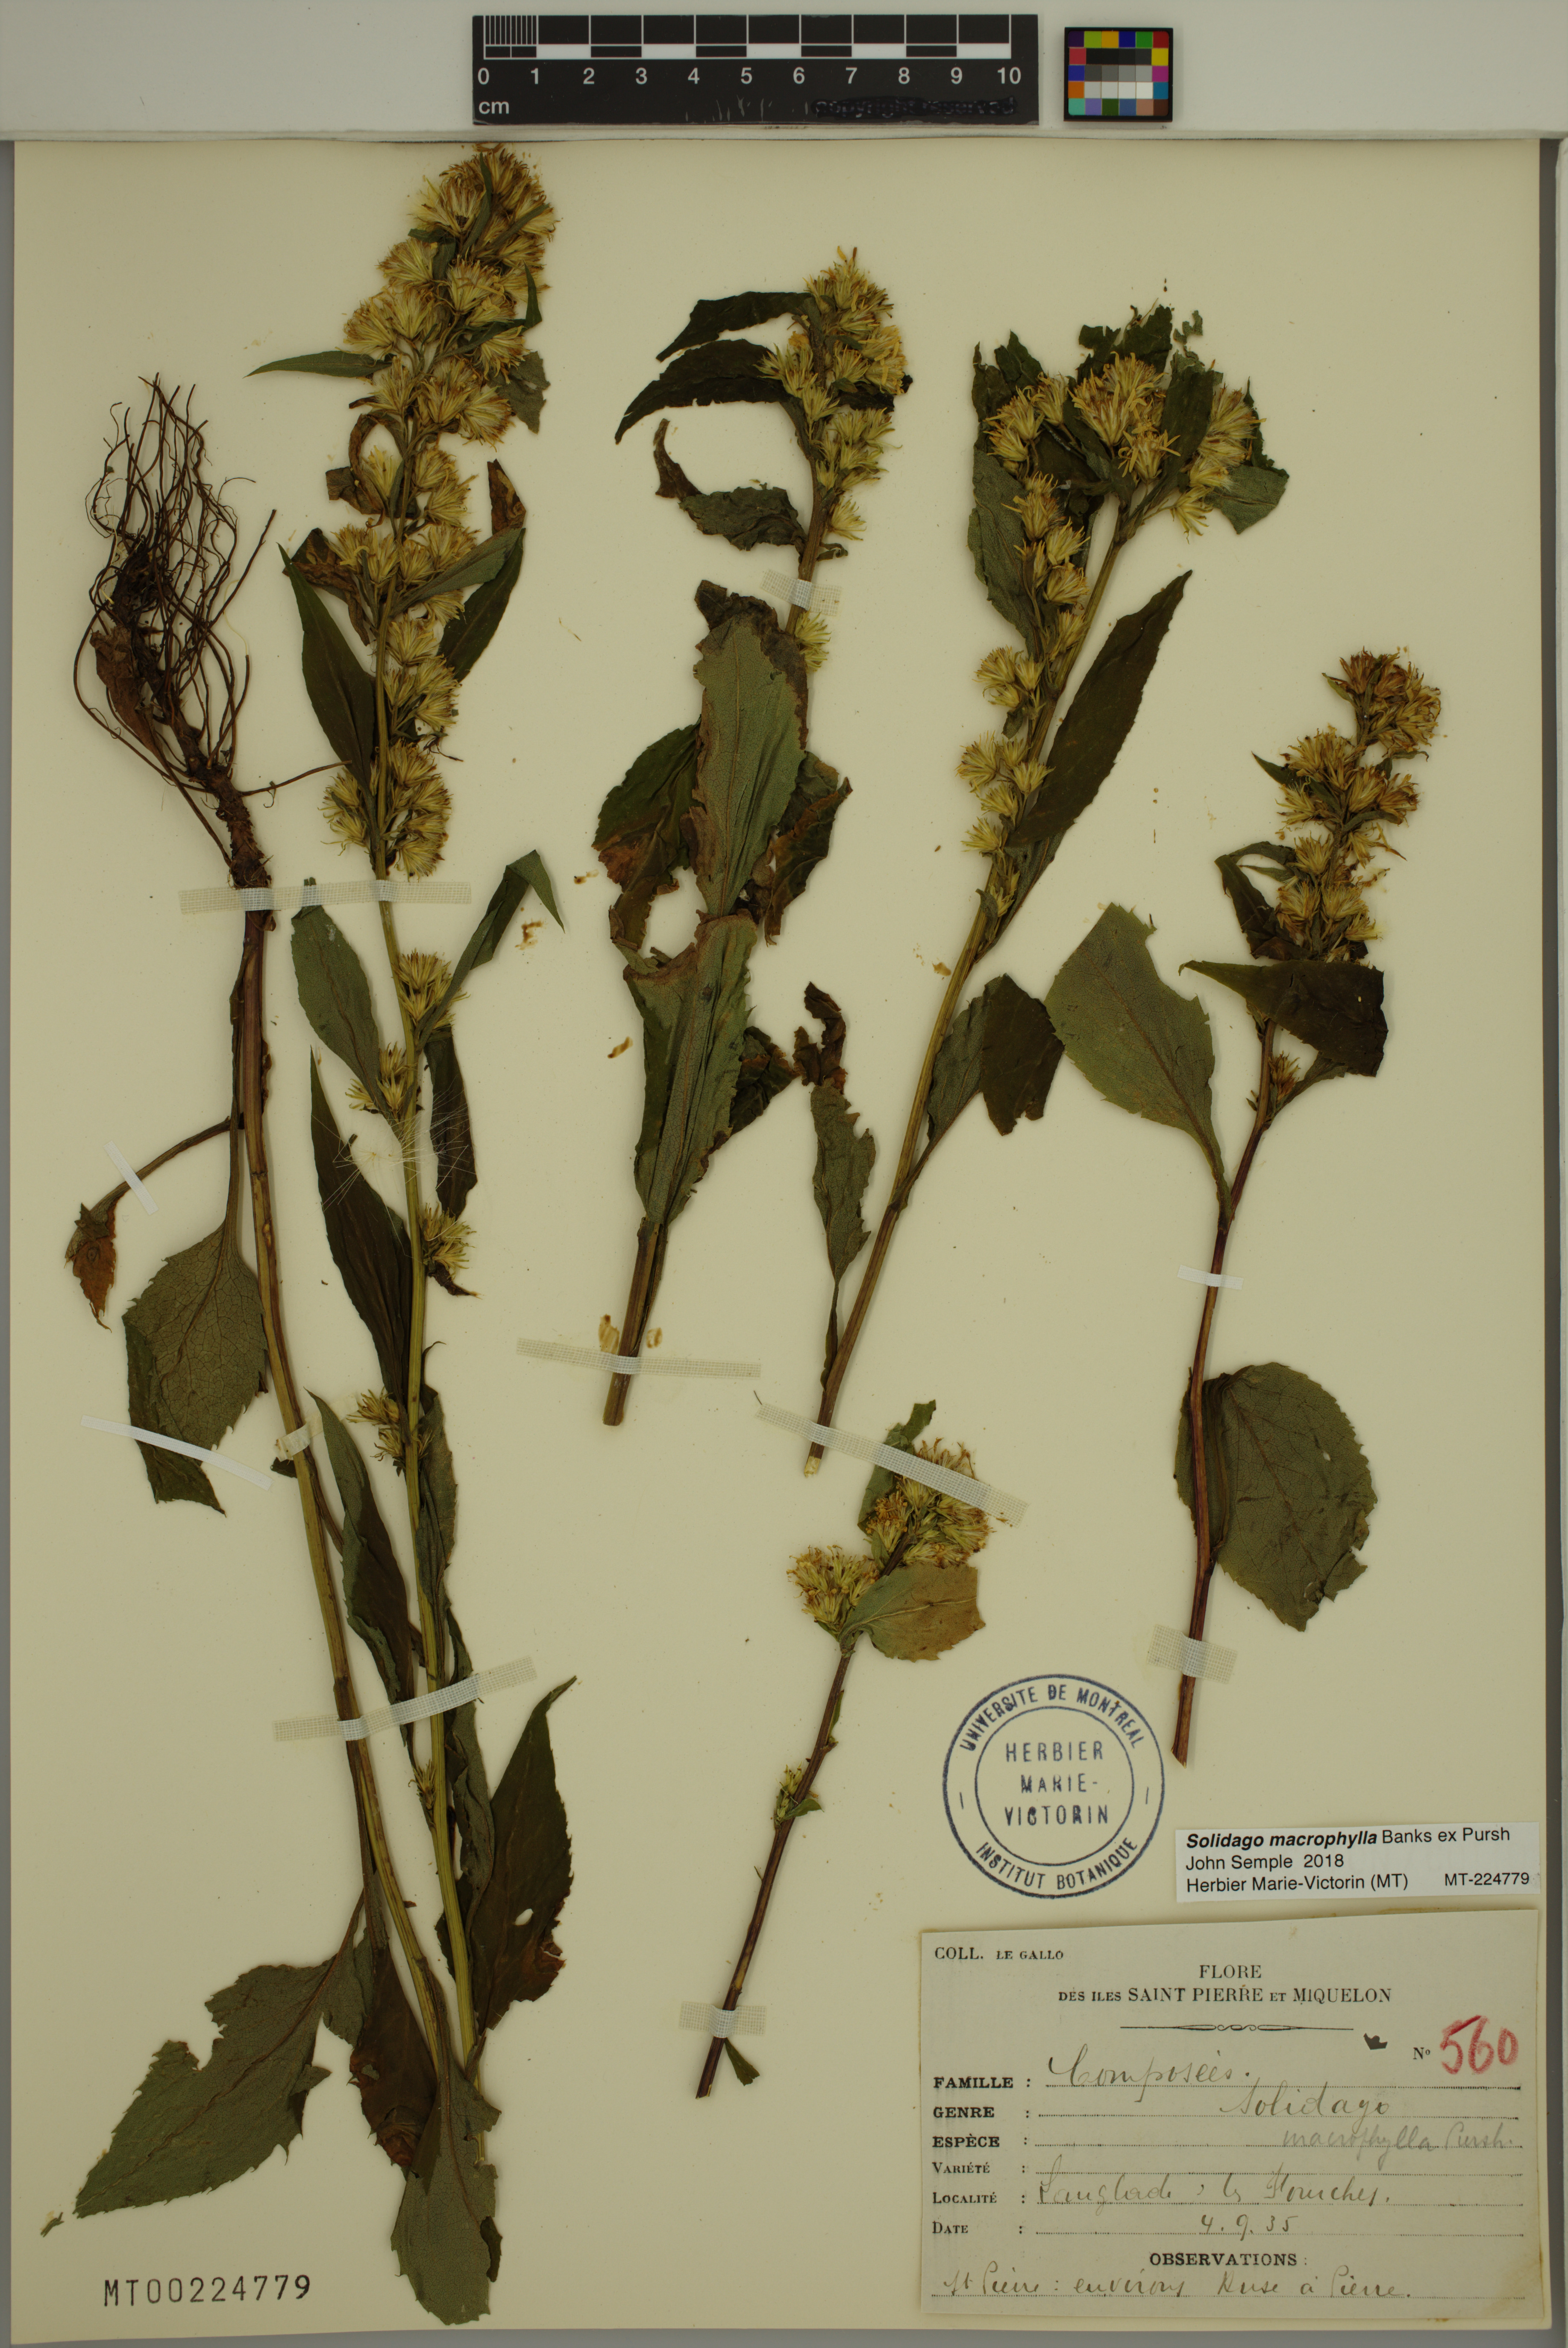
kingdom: Plantae
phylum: Tracheophyta
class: Magnoliopsida
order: Asterales
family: Asteraceae
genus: Solidago
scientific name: Solidago macrophylla
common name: Large-leaved goldenrod
